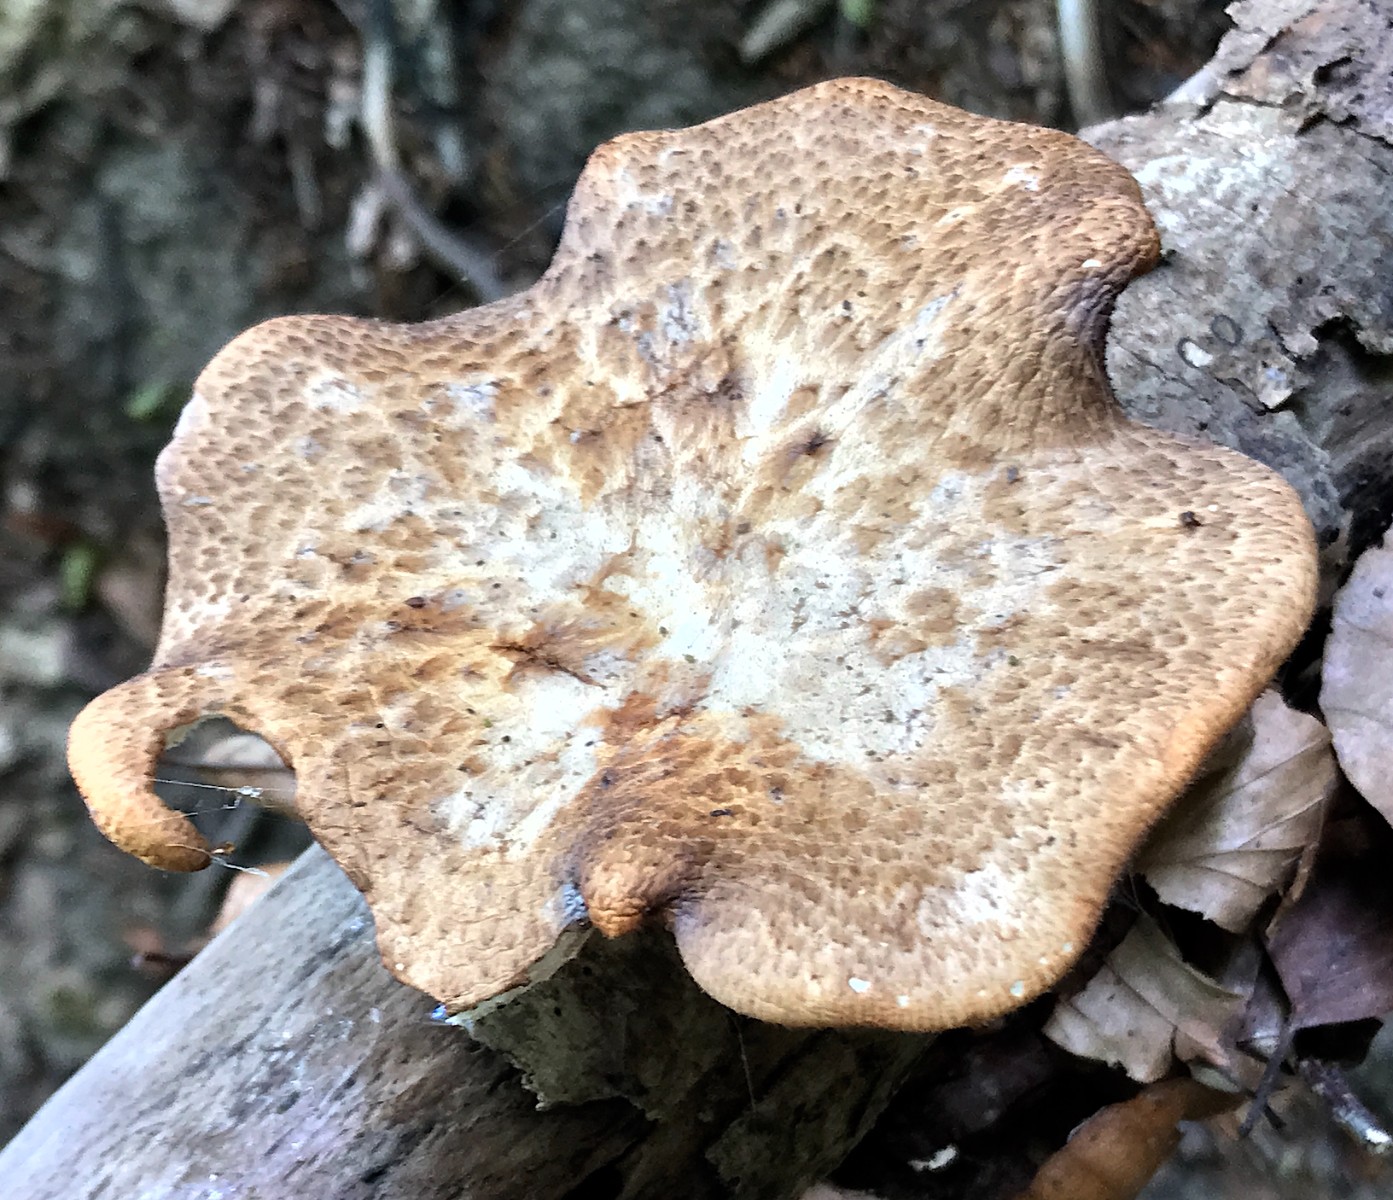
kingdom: Fungi
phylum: Basidiomycota
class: Agaricomycetes
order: Polyporales
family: Polyporaceae
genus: Polyporus
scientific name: Polyporus tuberaster
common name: knoldet stilkporesvamp
